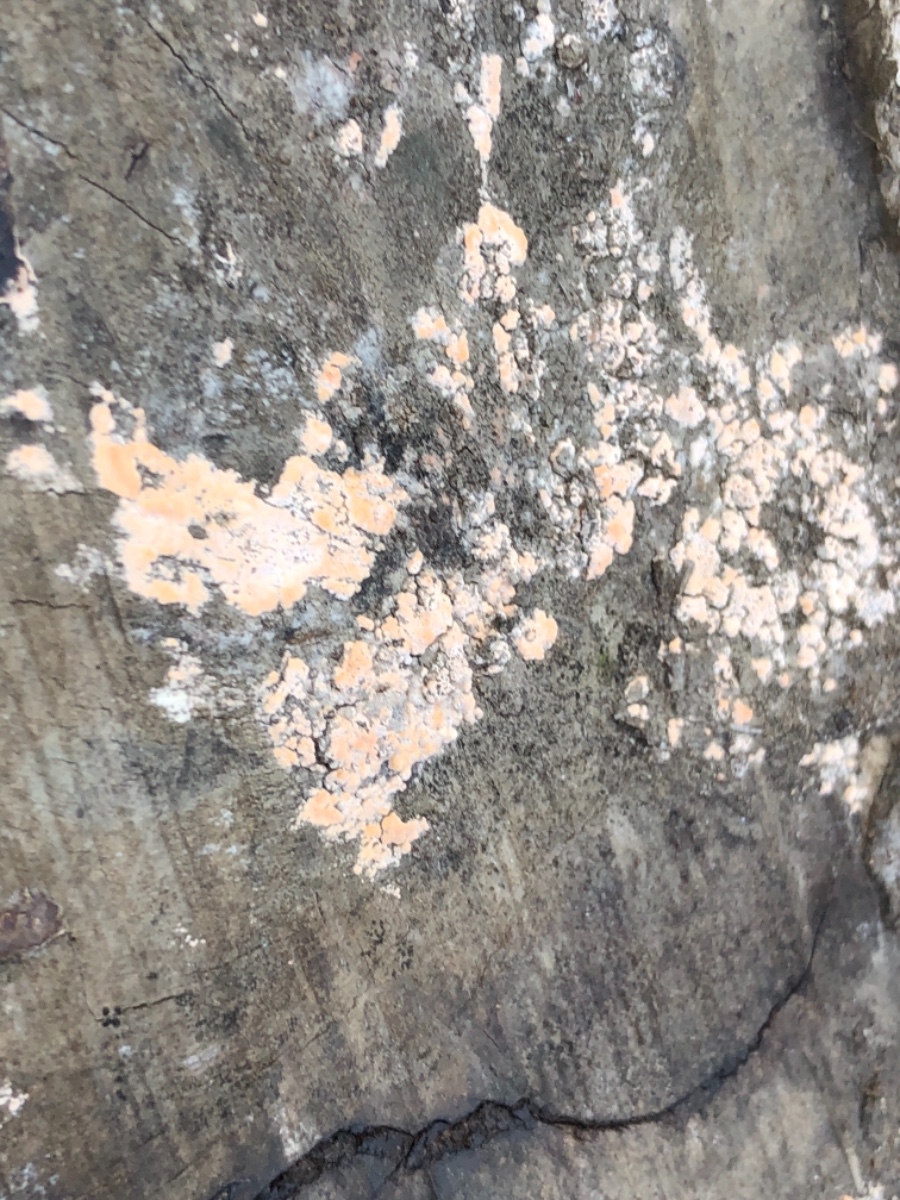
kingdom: Fungi
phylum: Basidiomycota
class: Agaricomycetes
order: Russulales
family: Peniophoraceae
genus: Peniophora
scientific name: Peniophora incarnata
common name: laksefarvet voksskind
